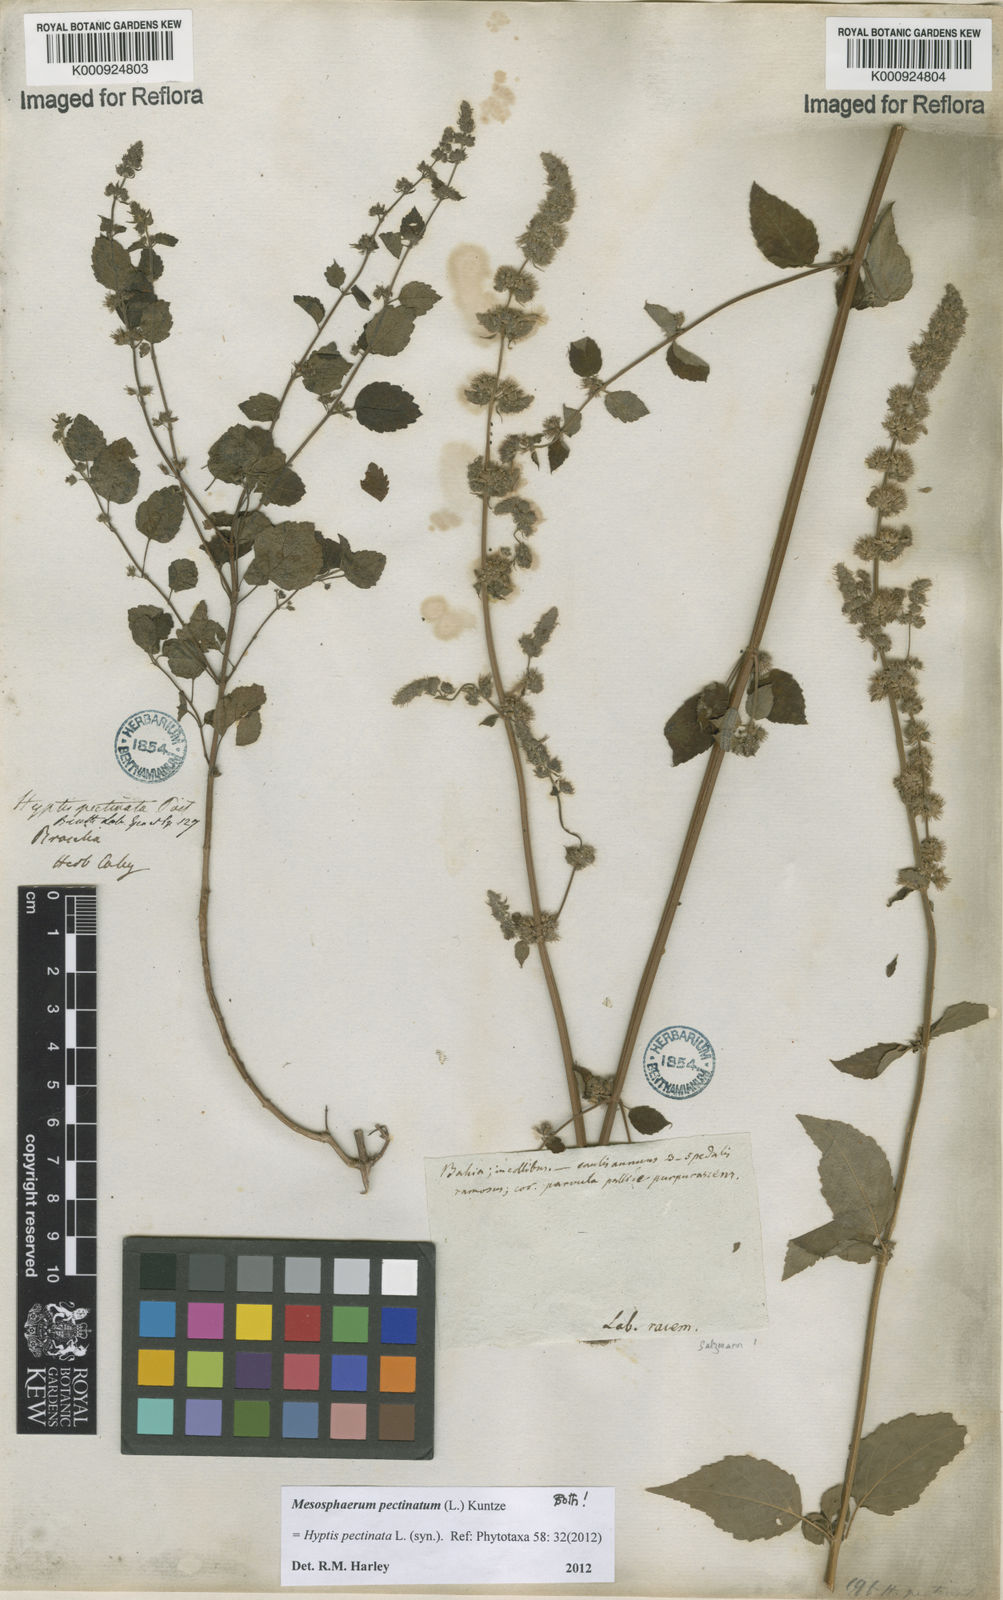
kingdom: Plantae
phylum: Tracheophyta
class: Magnoliopsida
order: Lamiales
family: Lamiaceae
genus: Mesosphaerum
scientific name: Mesosphaerum pectinatum
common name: Comb hyptis
